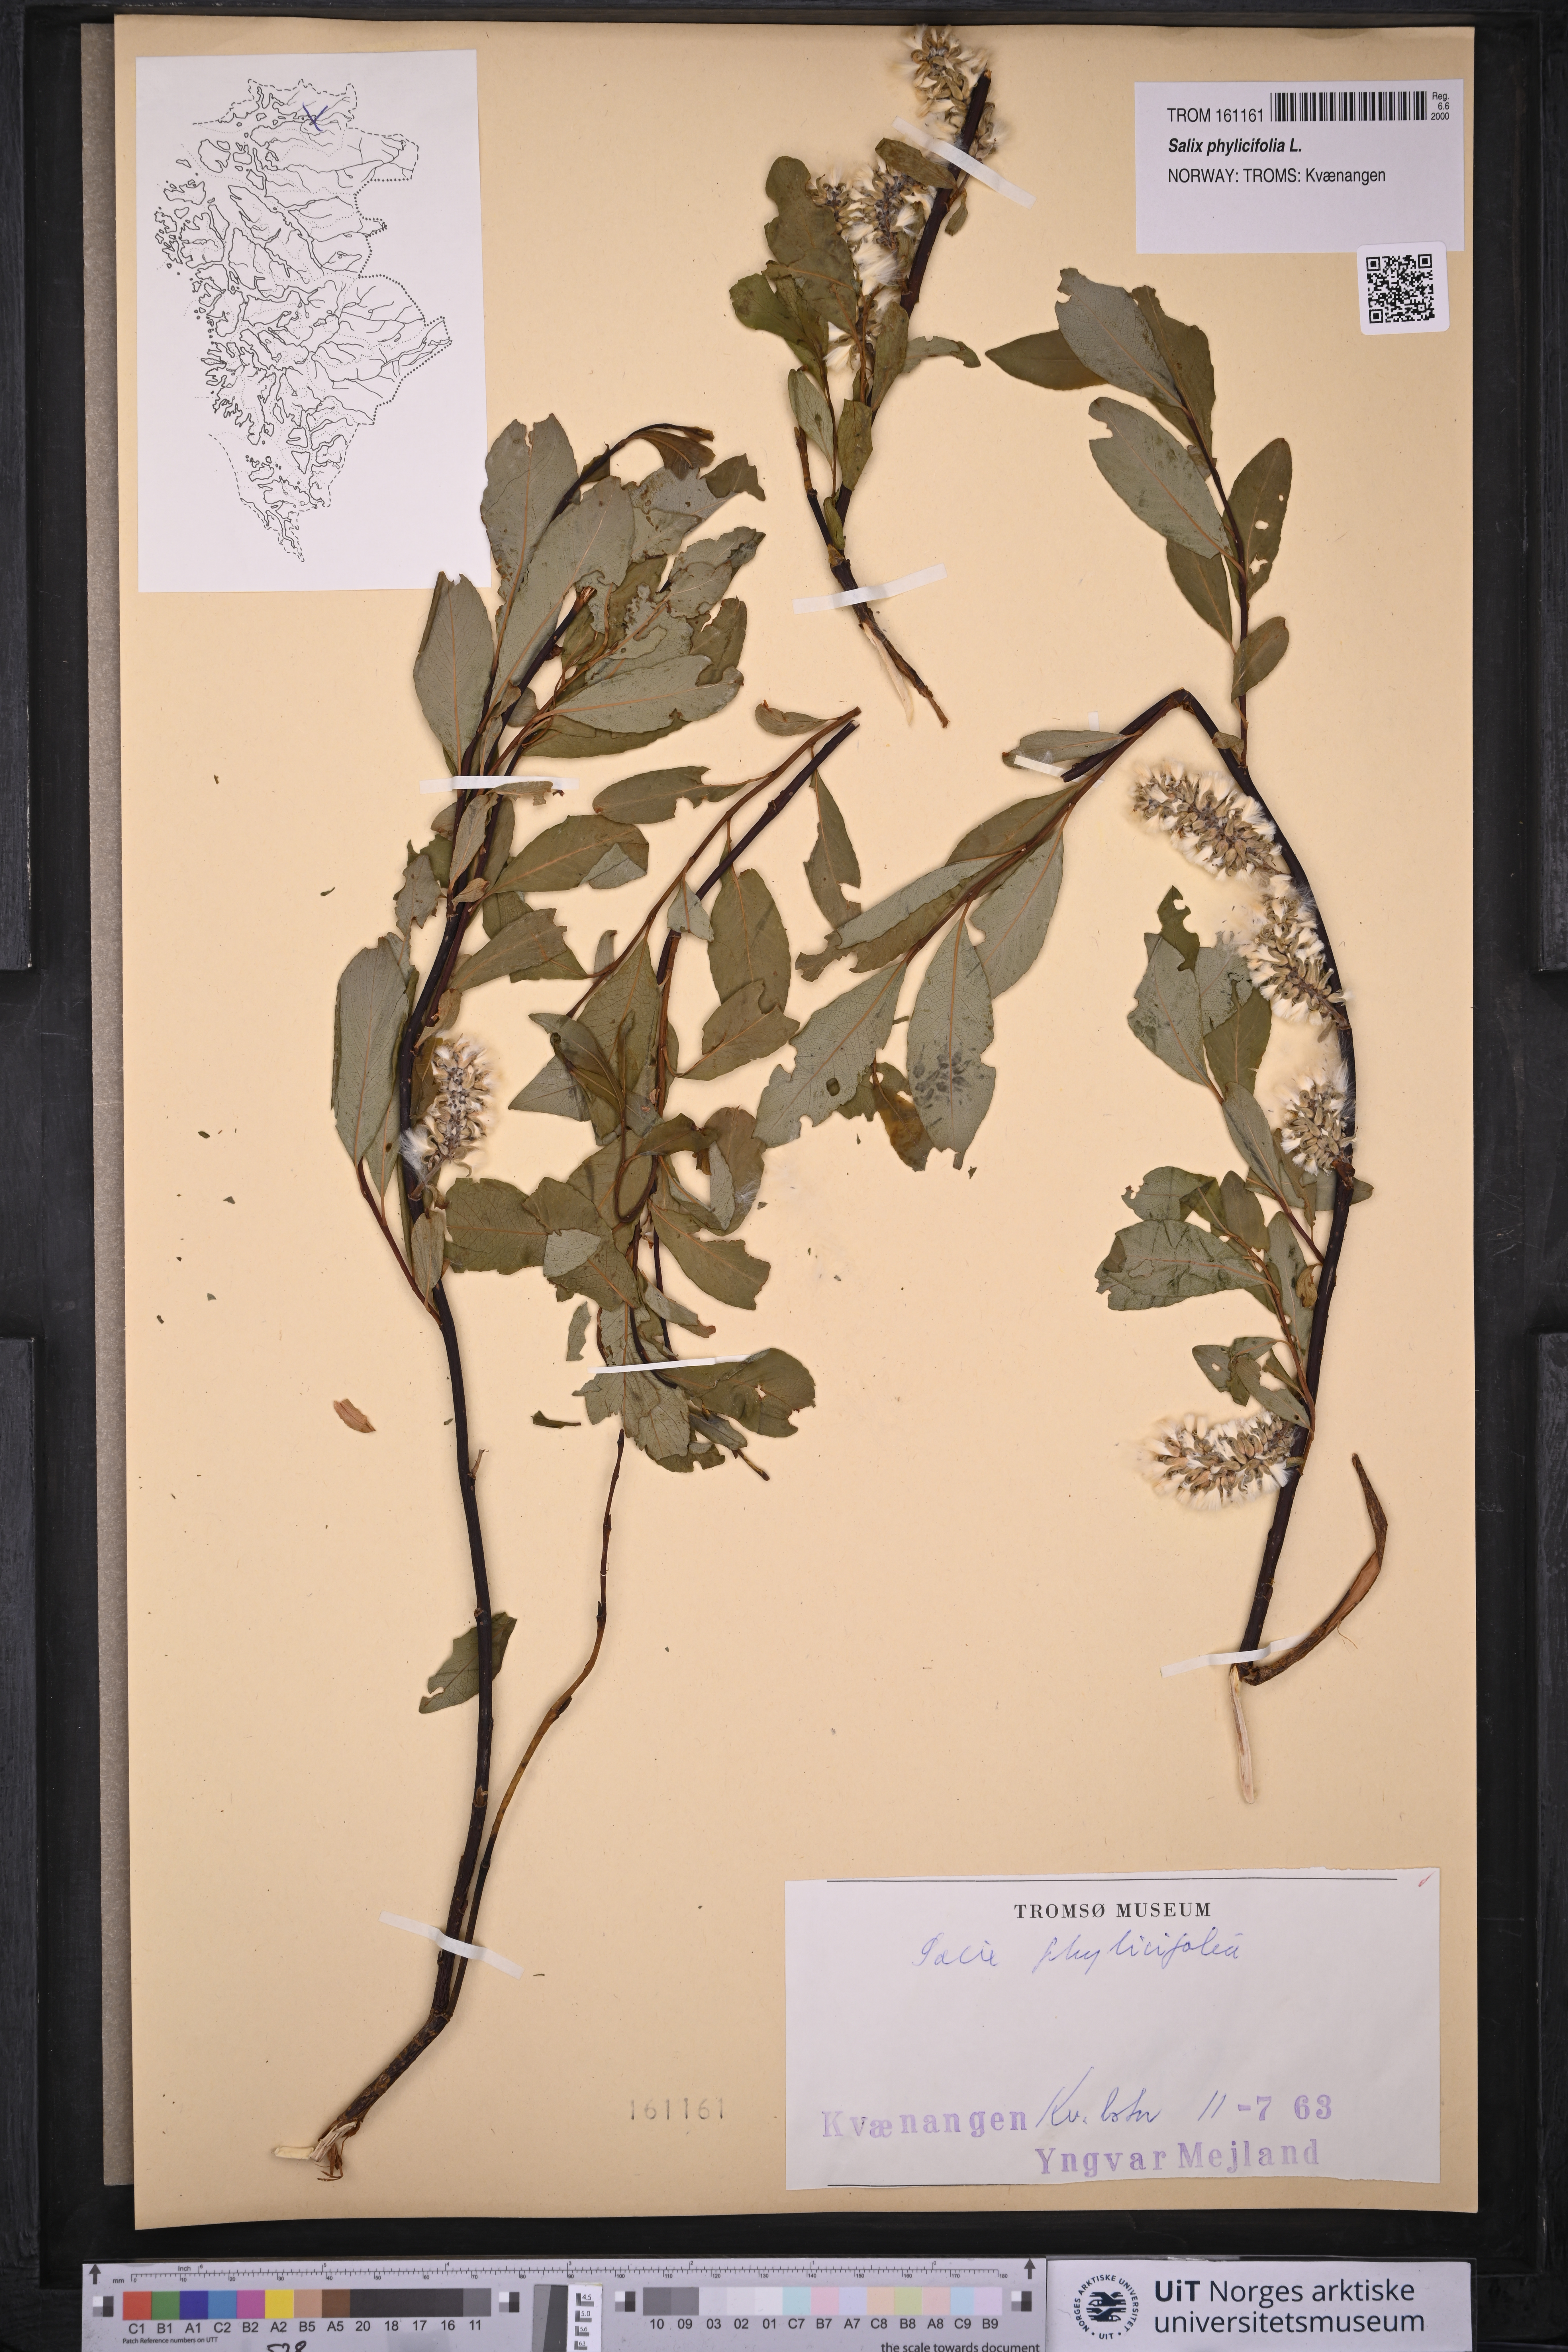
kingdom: Plantae
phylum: Tracheophyta
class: Magnoliopsida
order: Malpighiales
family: Salicaceae
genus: Salix
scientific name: Salix phylicifolia
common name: Tea-leaved willow
